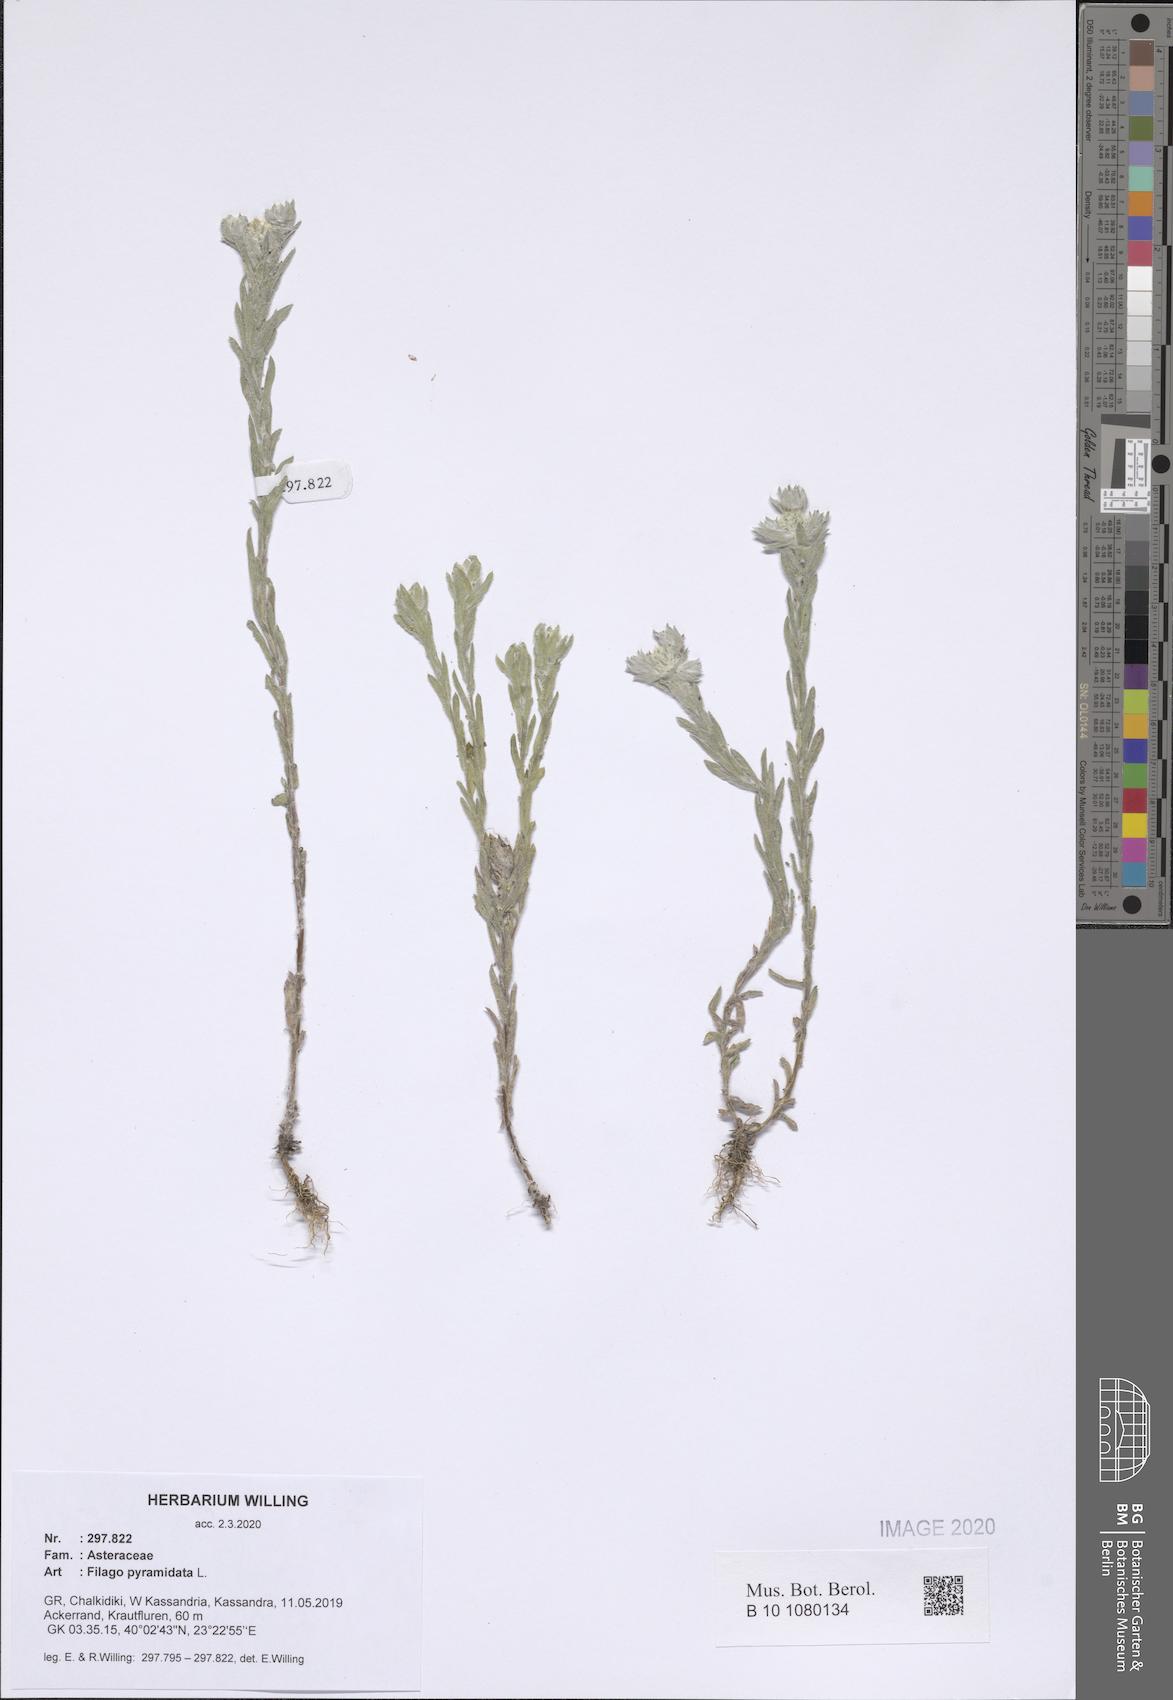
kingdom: Plantae
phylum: Tracheophyta
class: Magnoliopsida
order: Asterales
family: Asteraceae
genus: Filago
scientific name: Filago pyramidata
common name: Broad-leaved cudweed
